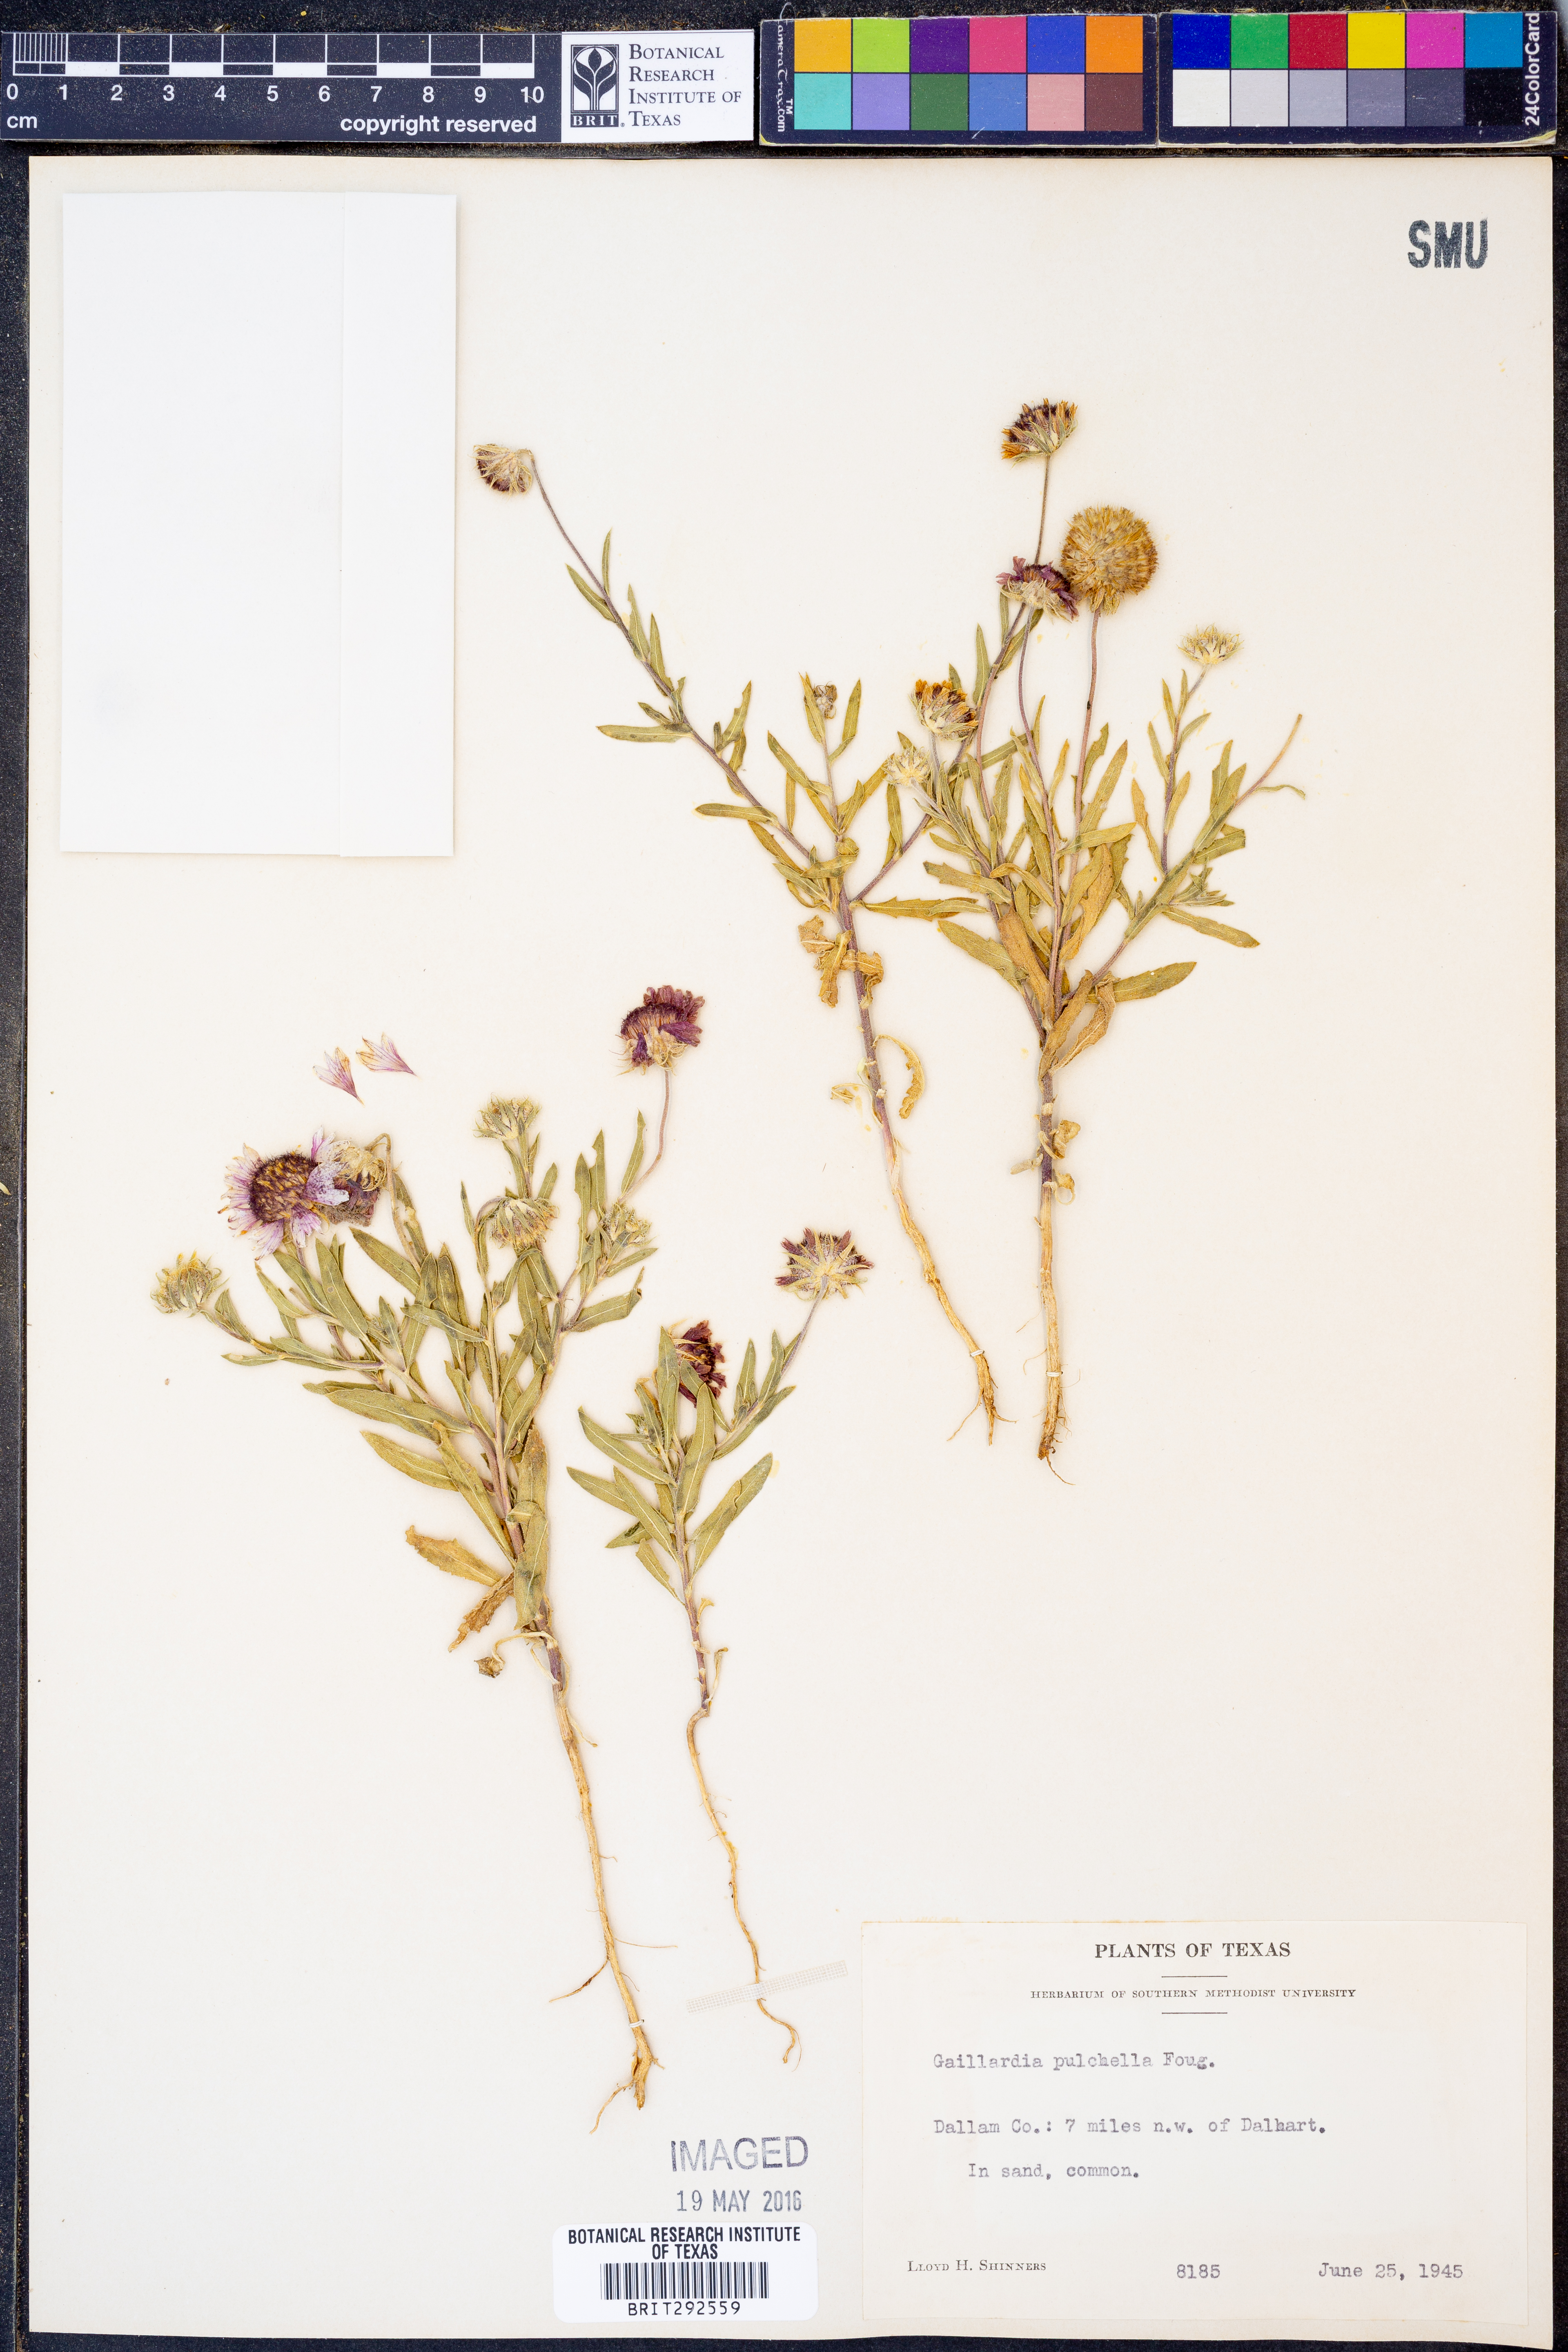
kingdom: Plantae
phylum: Tracheophyta
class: Magnoliopsida
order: Asterales
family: Asteraceae
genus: Gaillardia
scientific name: Gaillardia pulchella
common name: Firewheel
